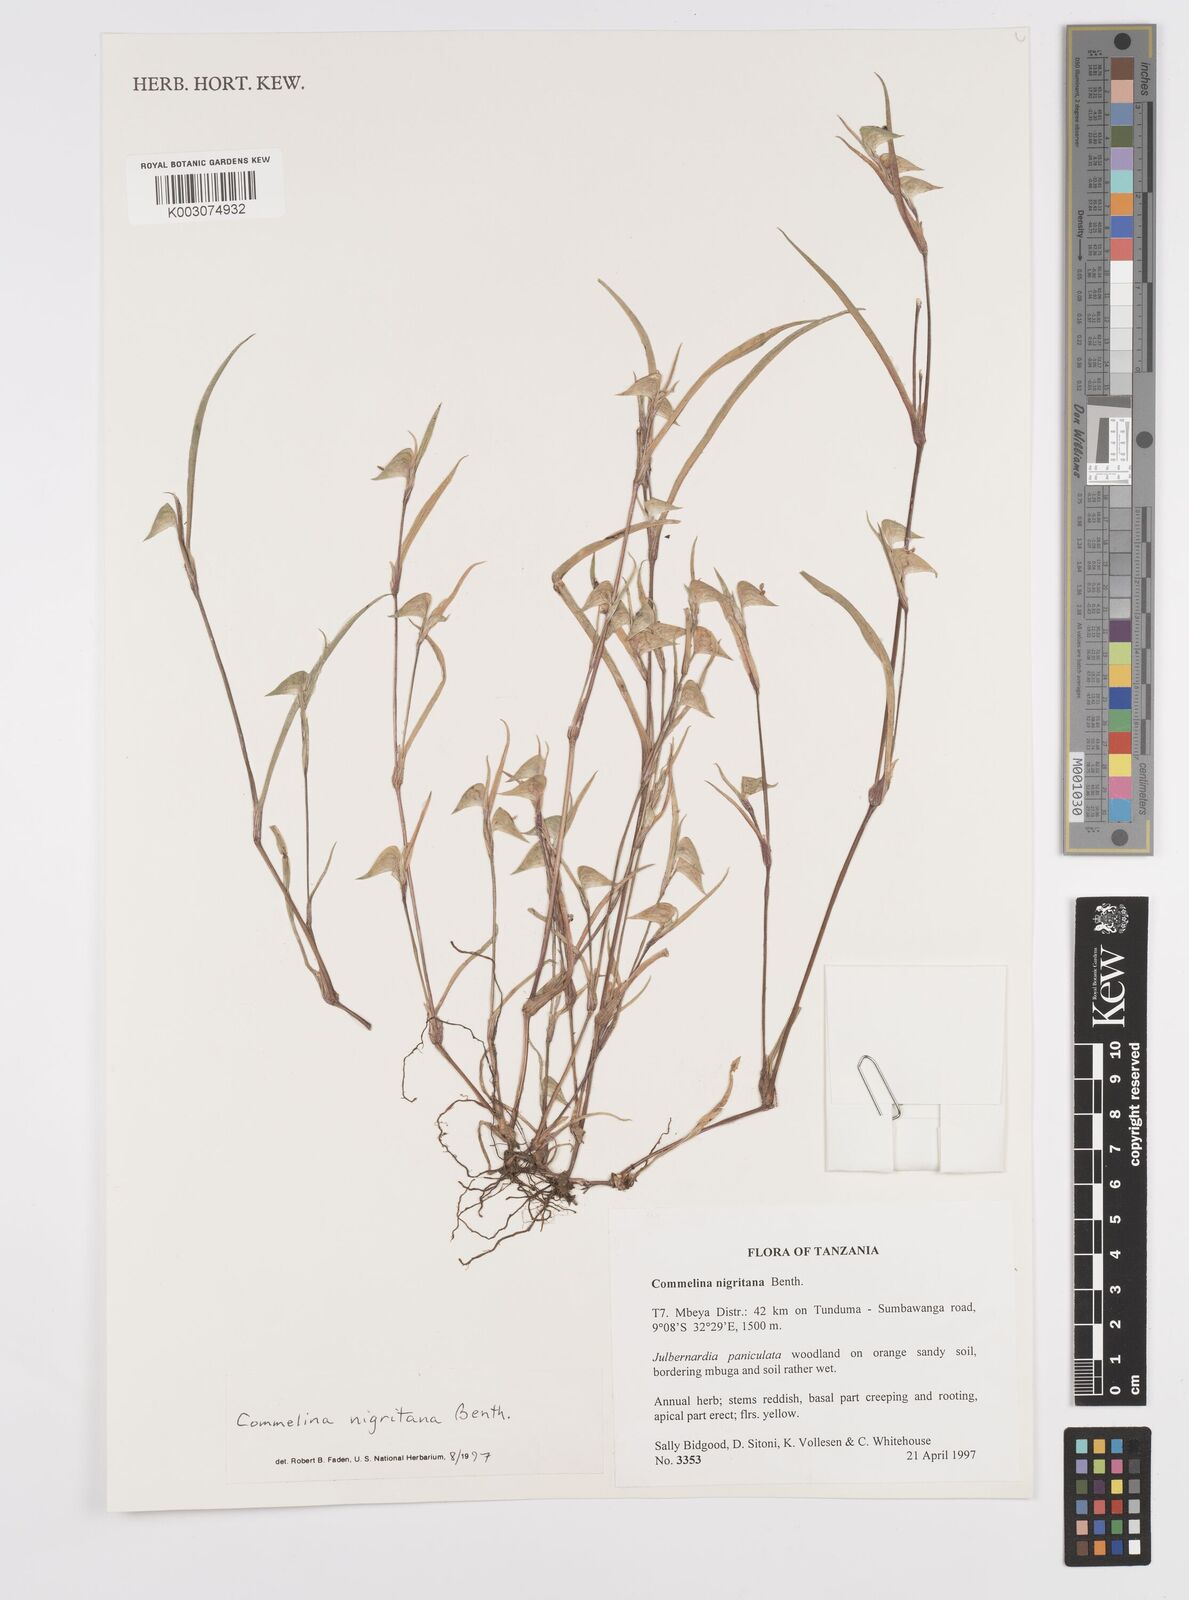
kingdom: Plantae
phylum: Tracheophyta
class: Liliopsida
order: Commelinales
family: Commelinaceae
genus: Commelina
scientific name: Commelina nigritana
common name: African dayflower
